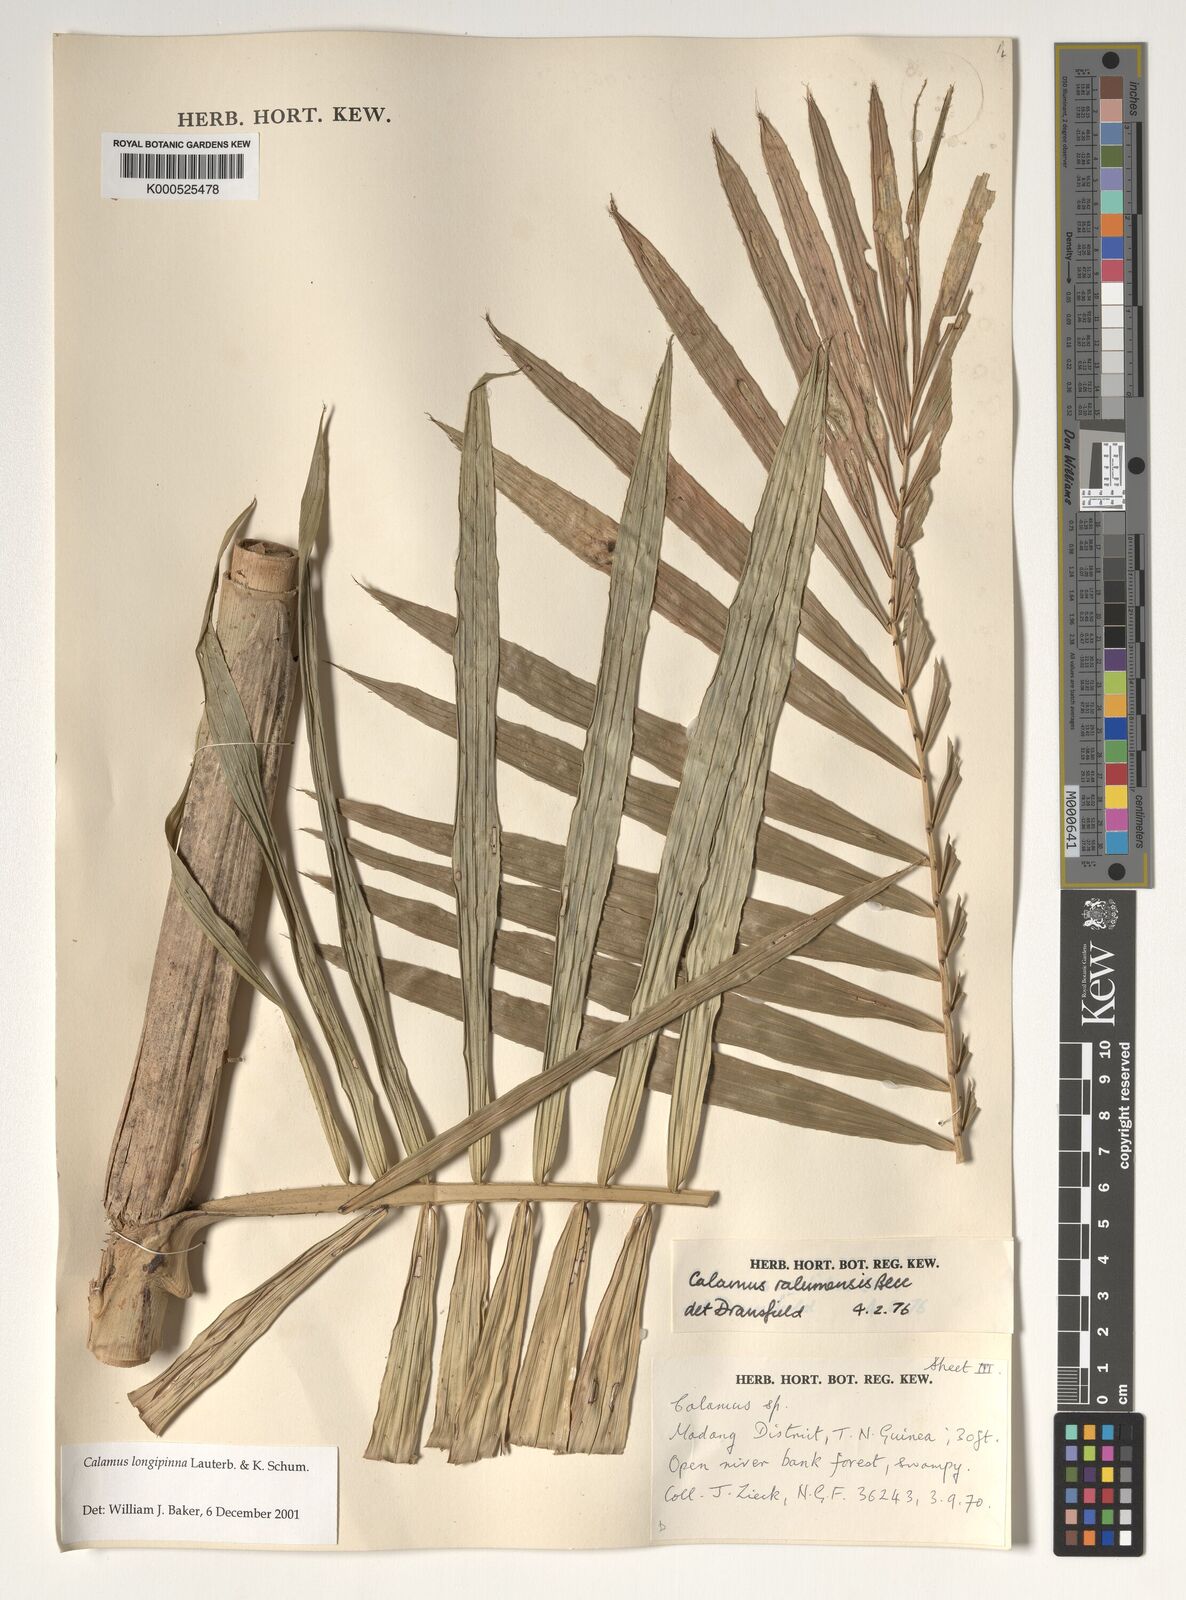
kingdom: Plantae
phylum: Tracheophyta
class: Liliopsida
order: Arecales
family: Arecaceae
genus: Calamus
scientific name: Calamus longipinna
